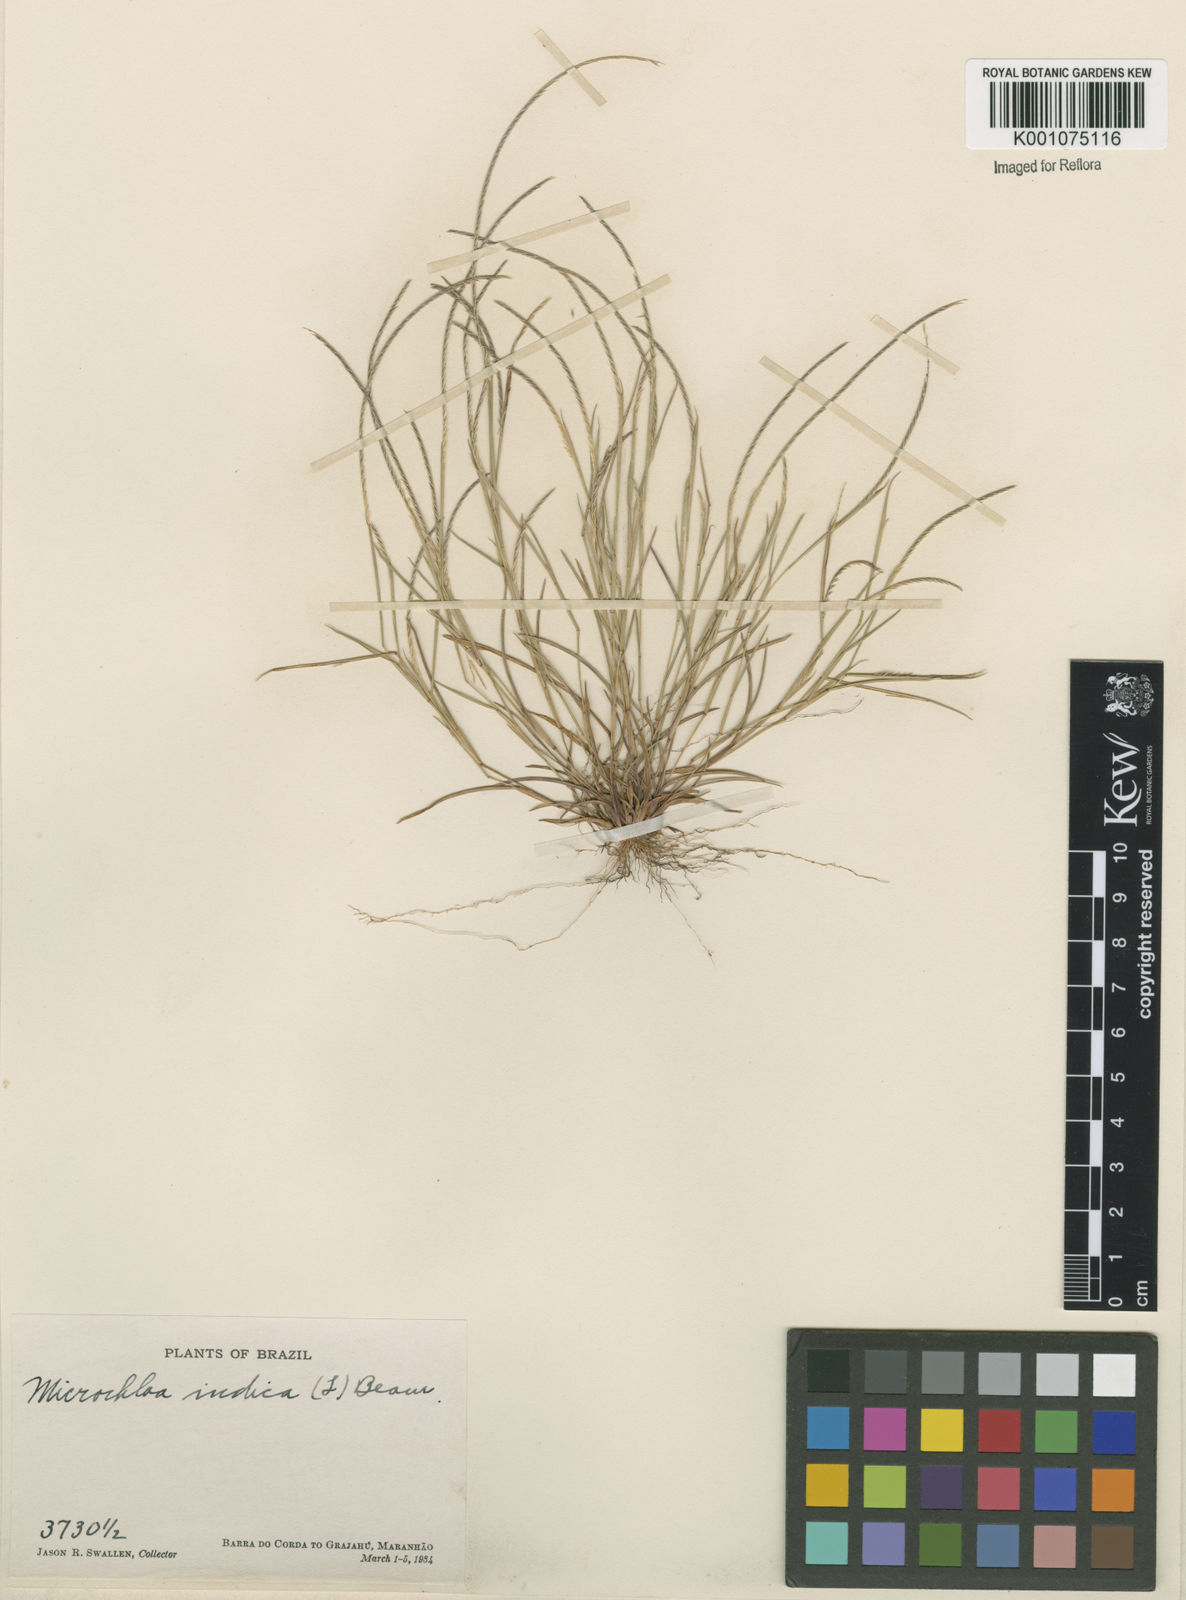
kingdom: Plantae
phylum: Tracheophyta
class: Liliopsida
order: Poales
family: Poaceae
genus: Microchloa
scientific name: Microchloa indica
